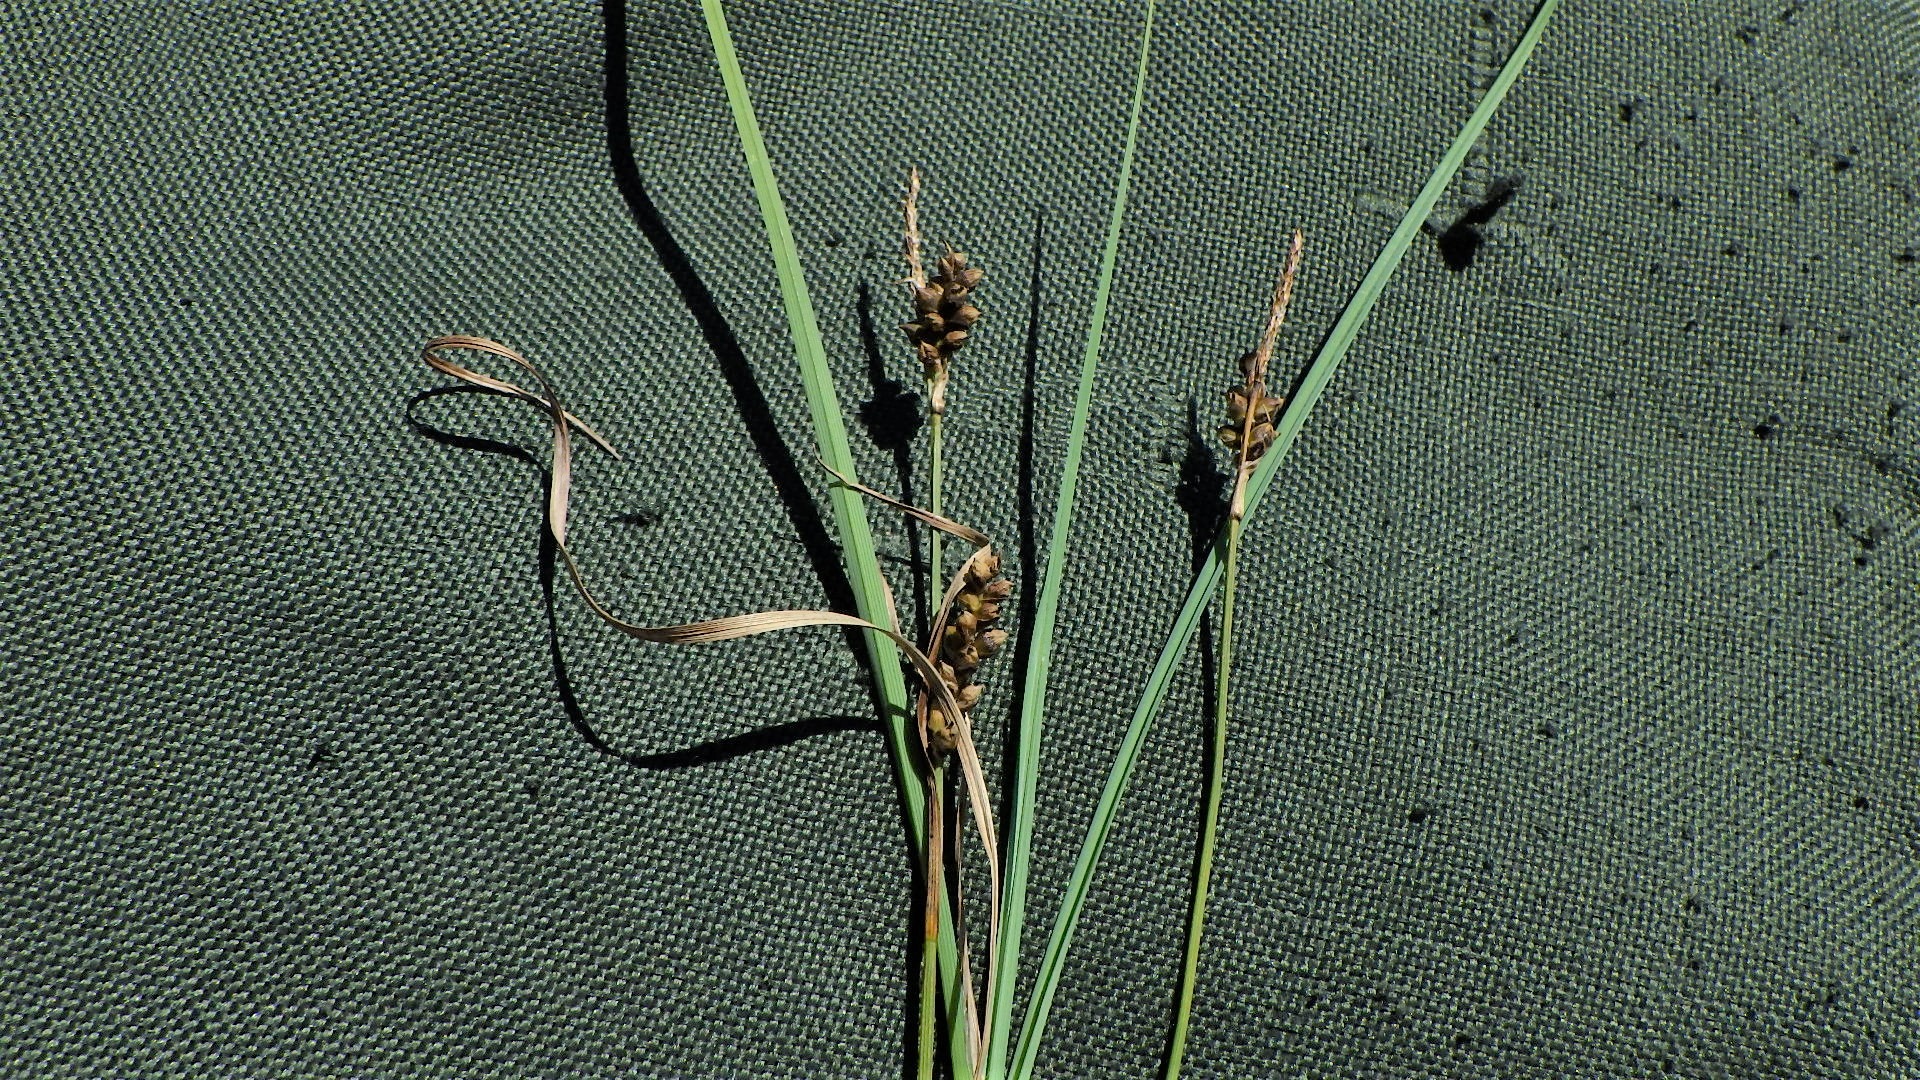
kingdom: Plantae
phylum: Tracheophyta
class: Liliopsida
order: Poales
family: Cyperaceae
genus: Carex
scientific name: Carex panicea
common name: Hirse-star
